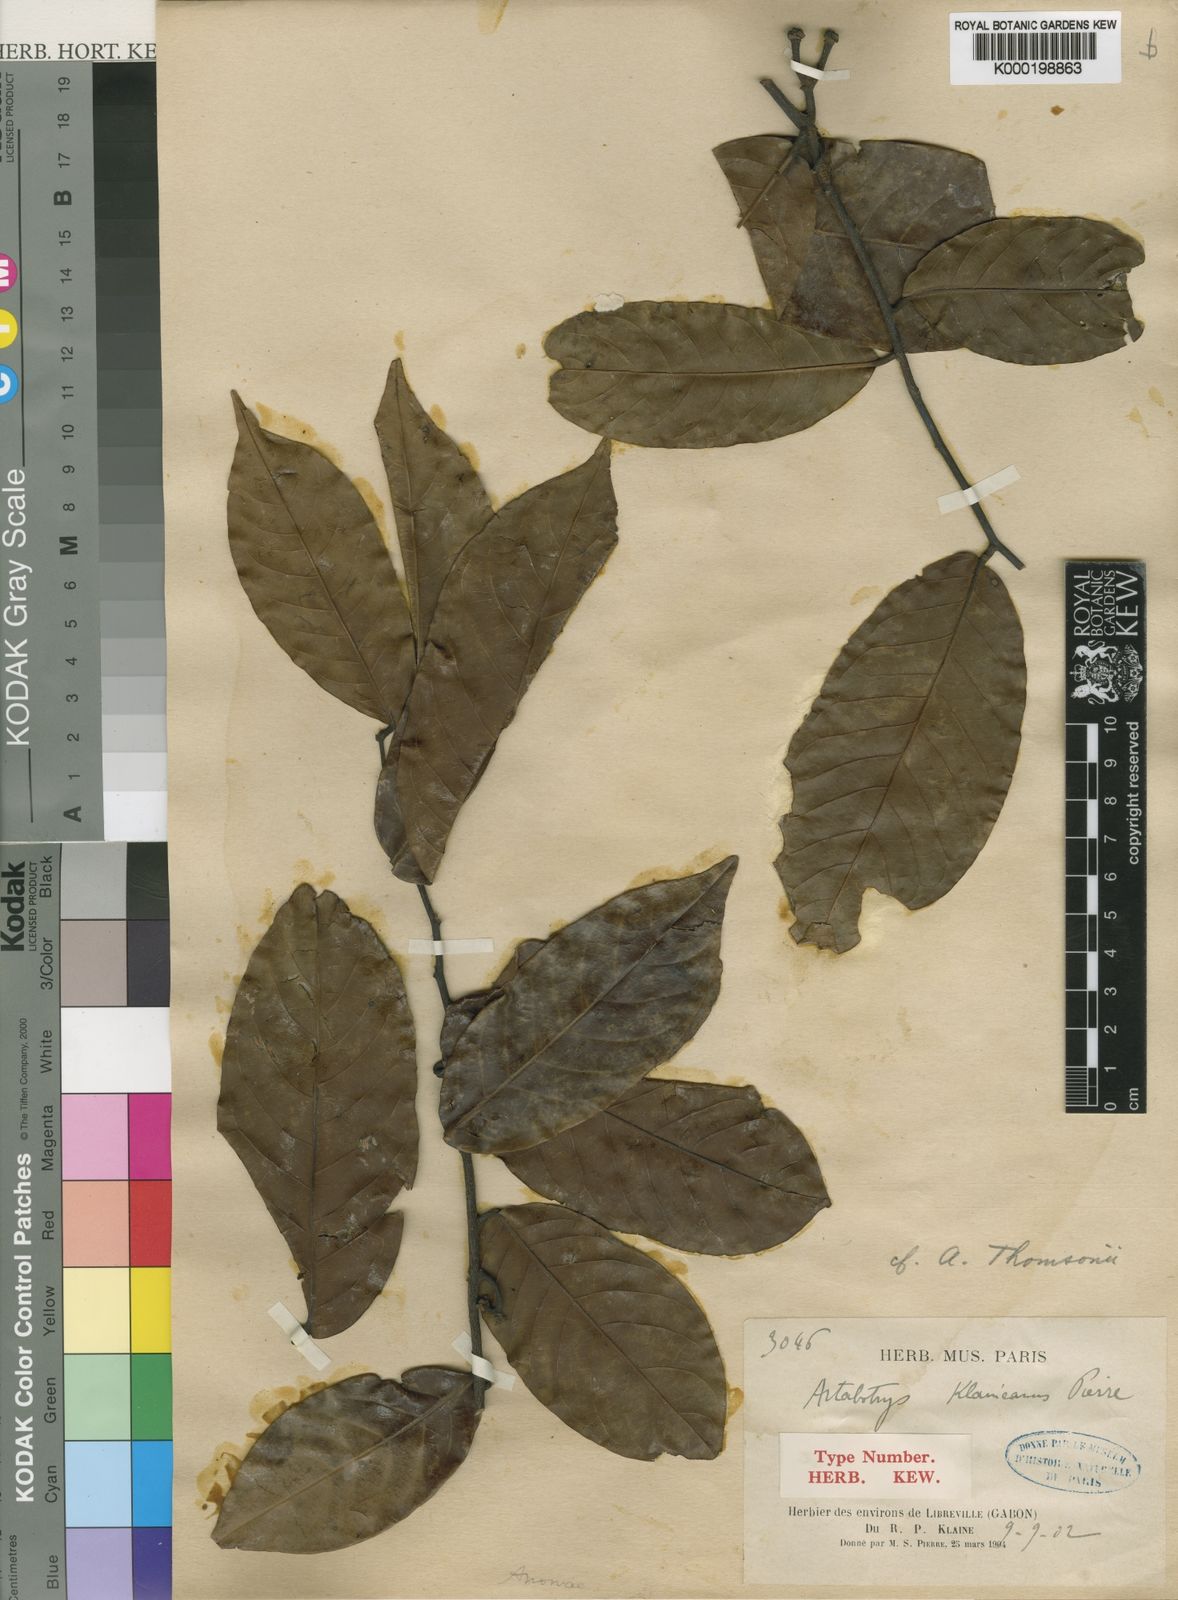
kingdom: Plantae
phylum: Tracheophyta
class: Magnoliopsida
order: Magnoliales
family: Annonaceae
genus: Artabotrys
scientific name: Artabotrys thomsonii
